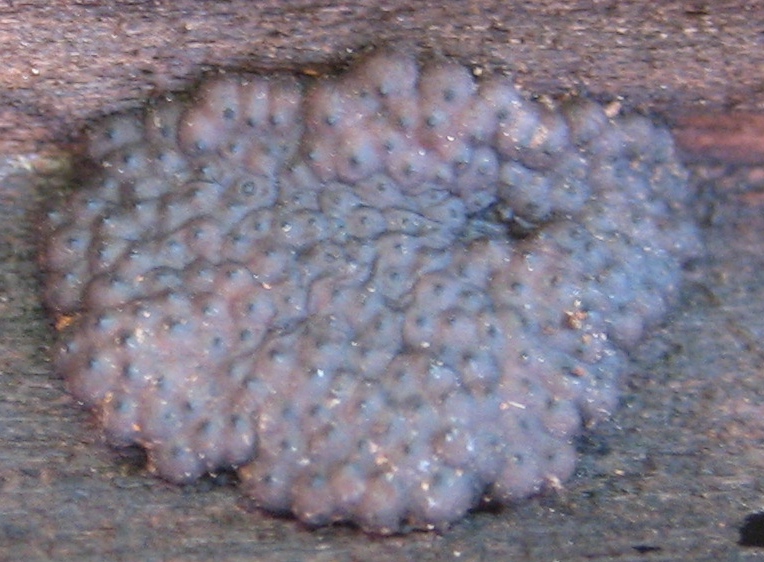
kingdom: Fungi
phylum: Ascomycota
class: Sordariomycetes
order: Xylariales
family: Hypoxylaceae
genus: Jackrogersella
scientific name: Jackrogersella multiformis
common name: foranderlig kulbær
